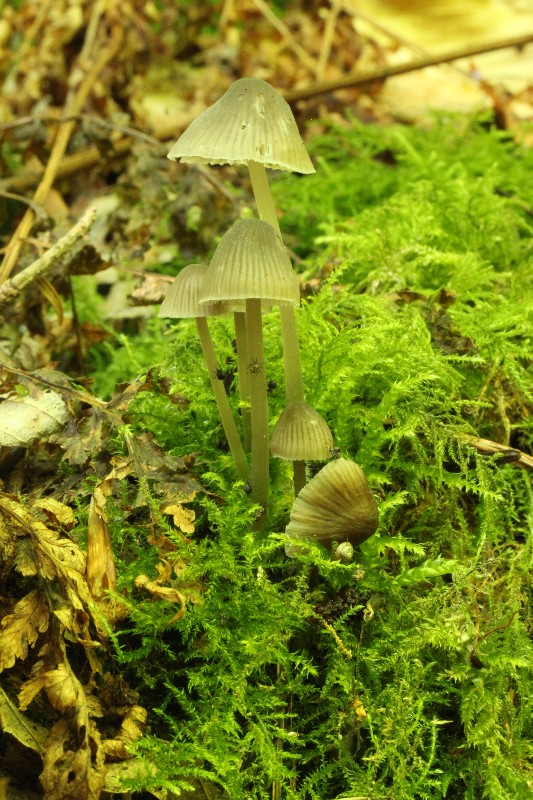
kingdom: Fungi
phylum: Basidiomycota
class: Agaricomycetes
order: Agaricales
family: Mycenaceae
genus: Mycena
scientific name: Mycena abramsii
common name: sommer-huesvamp
